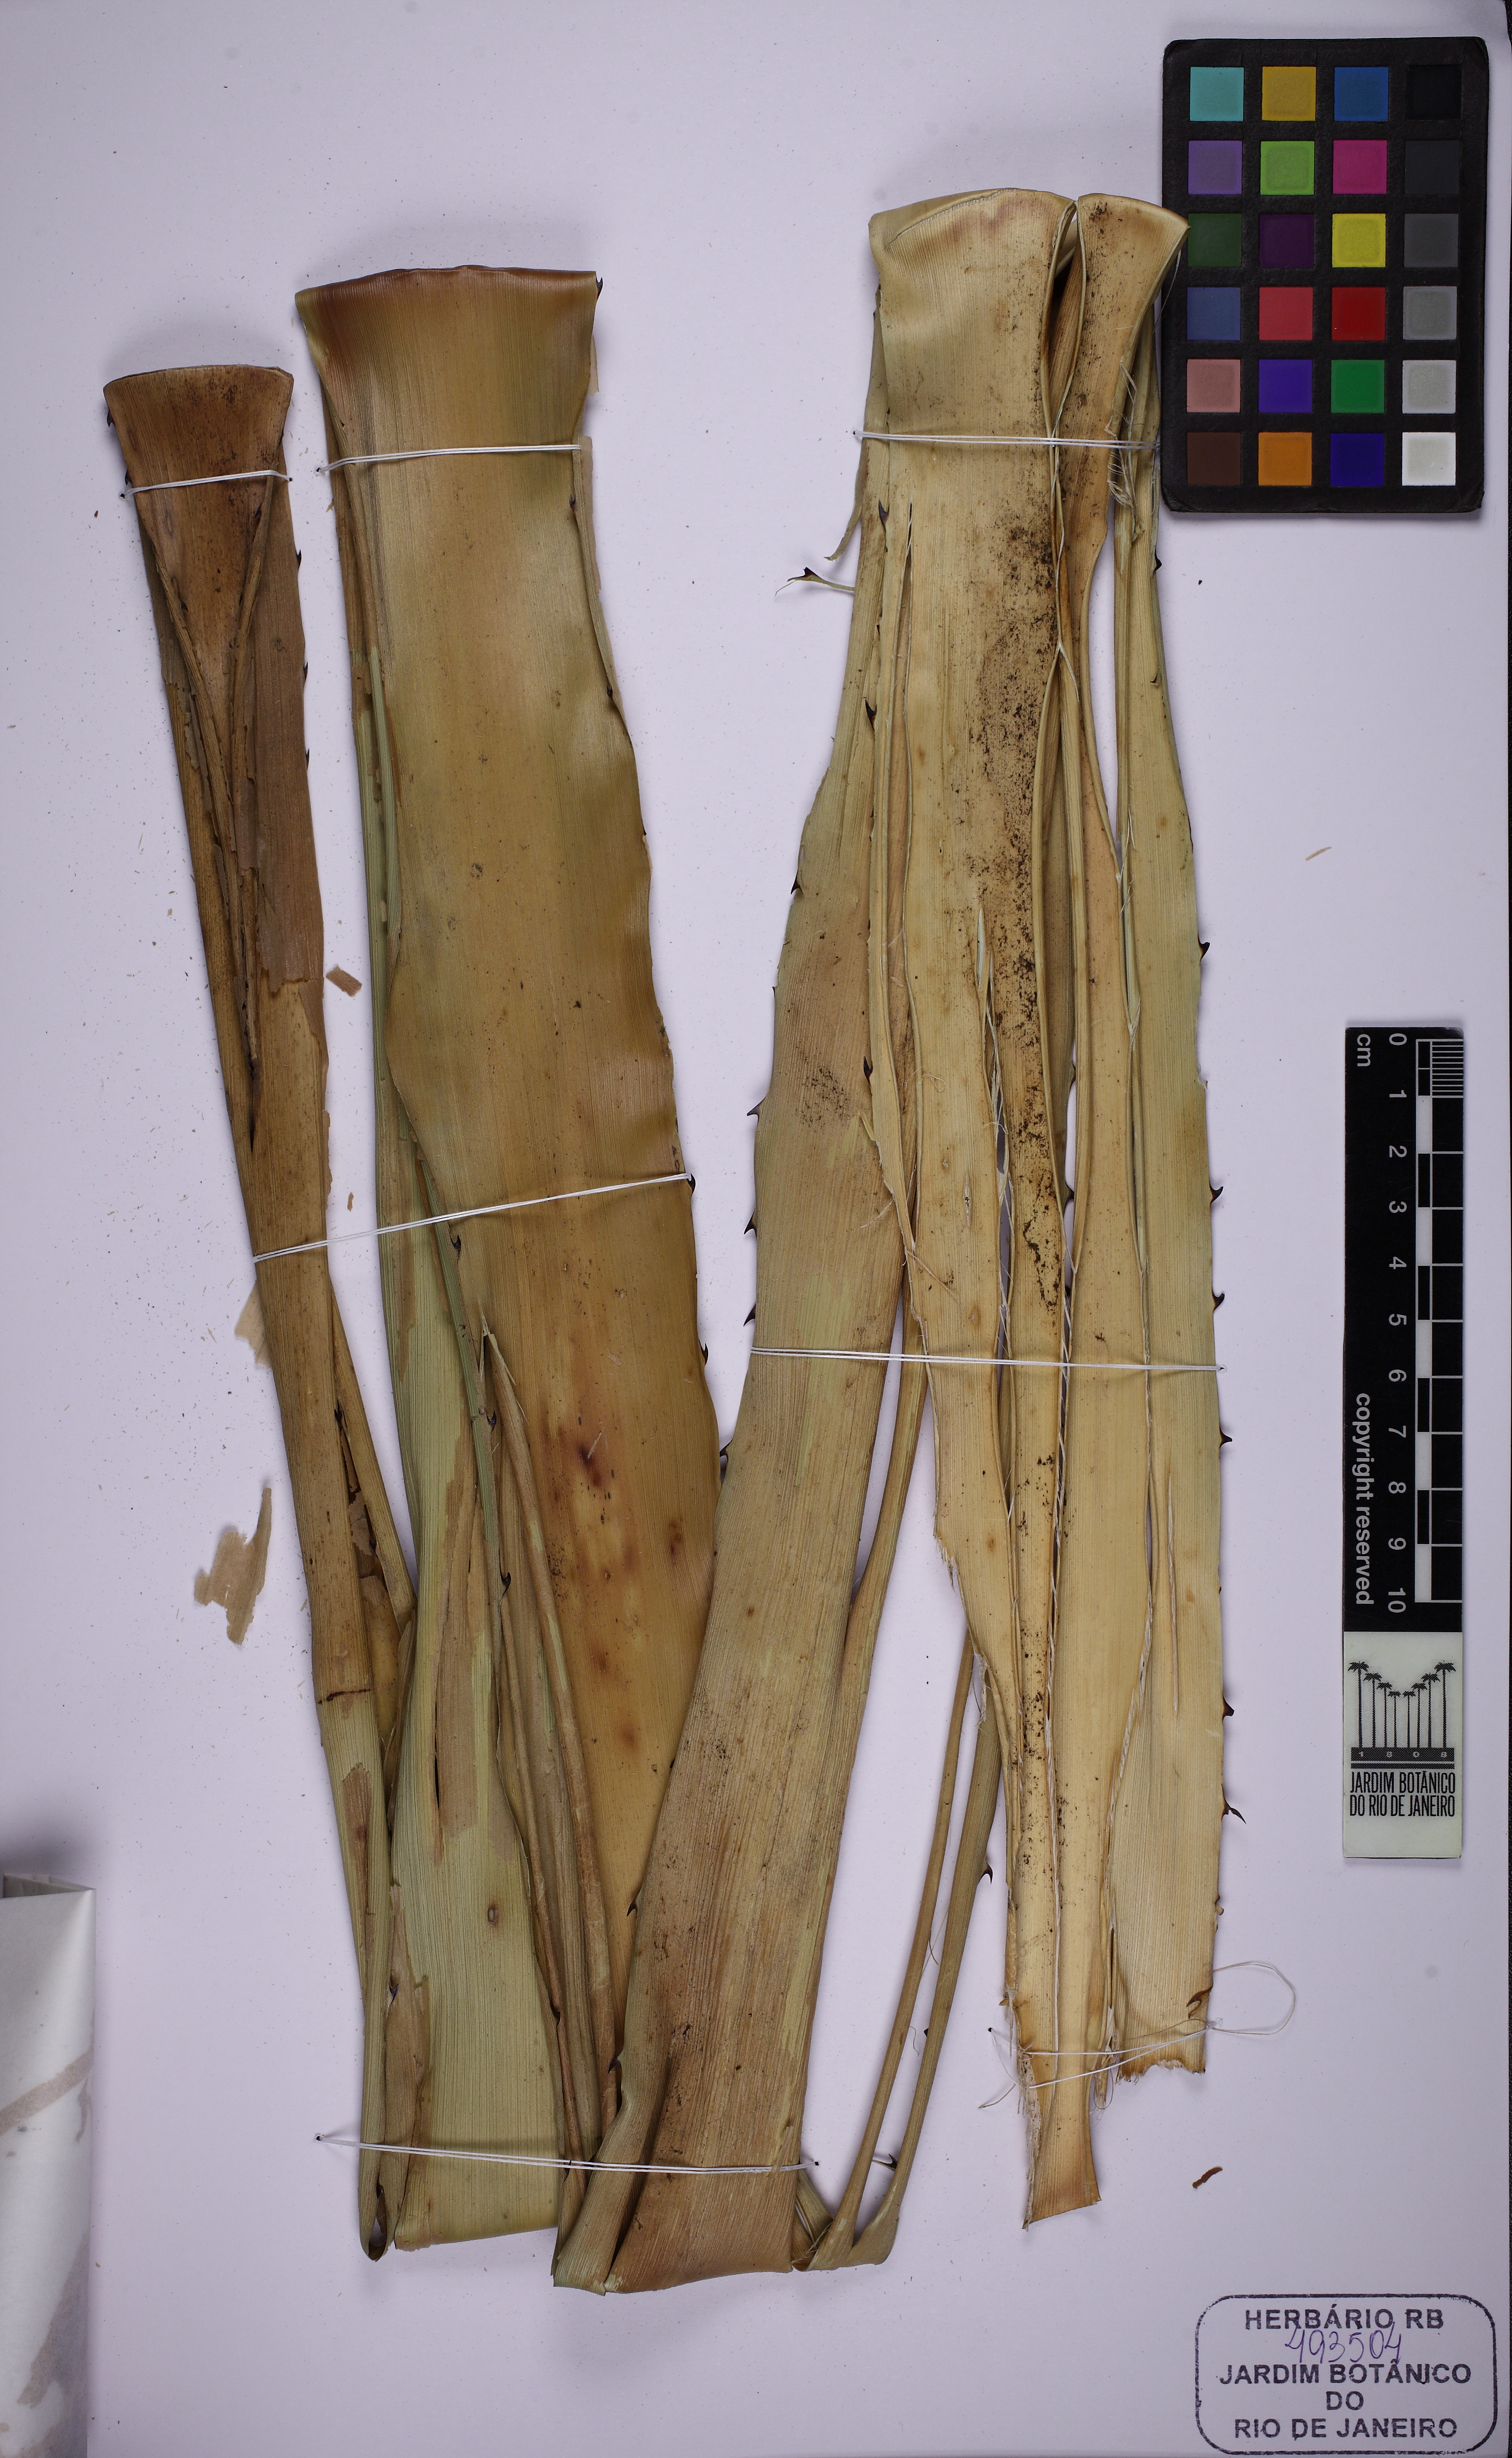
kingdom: Plantae
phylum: Tracheophyta
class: Liliopsida
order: Poales
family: Bromeliaceae
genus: Karawata
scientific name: Karawata saxicola
